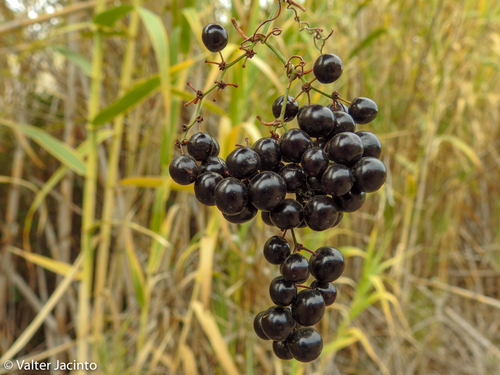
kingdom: Plantae
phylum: Tracheophyta
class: Liliopsida
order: Liliales
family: Smilacaceae
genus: Smilax
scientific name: Smilax aspera
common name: Common smilax
